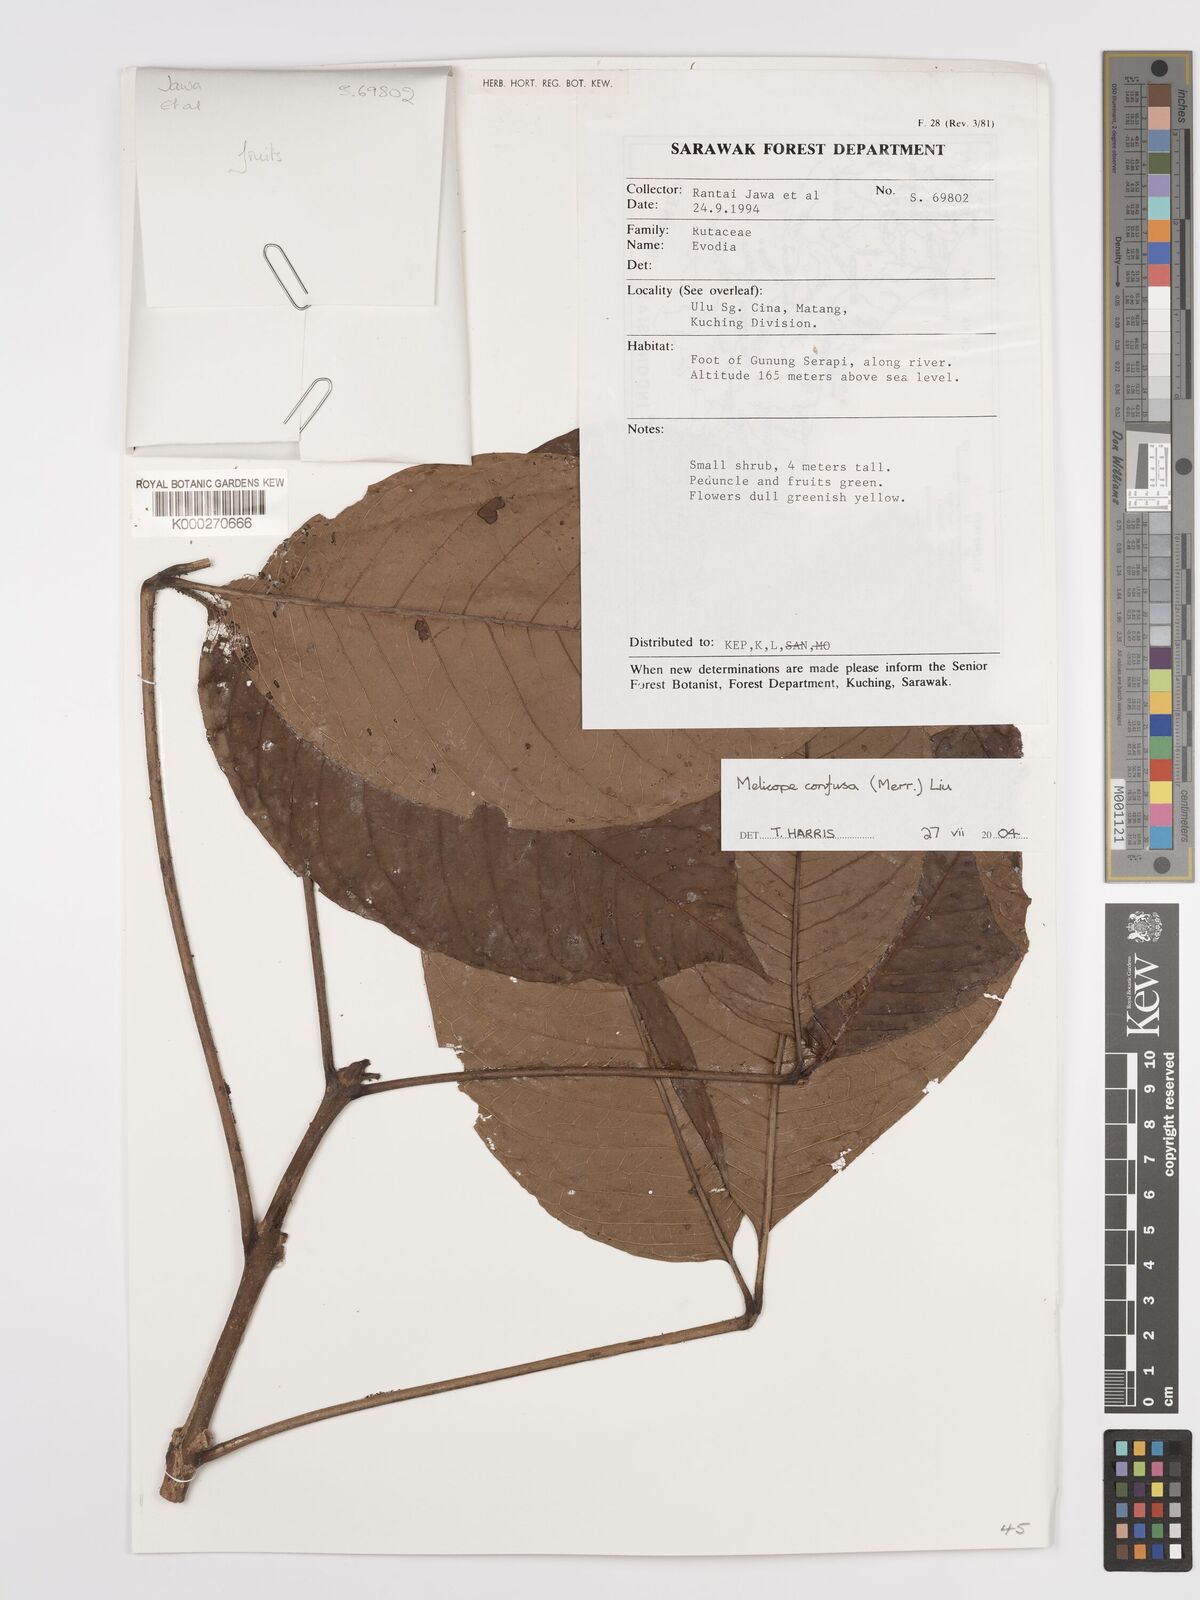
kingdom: Plantae
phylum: Tracheophyta
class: Magnoliopsida
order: Sapindales
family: Rutaceae
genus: Melicope
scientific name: Melicope frutescens
